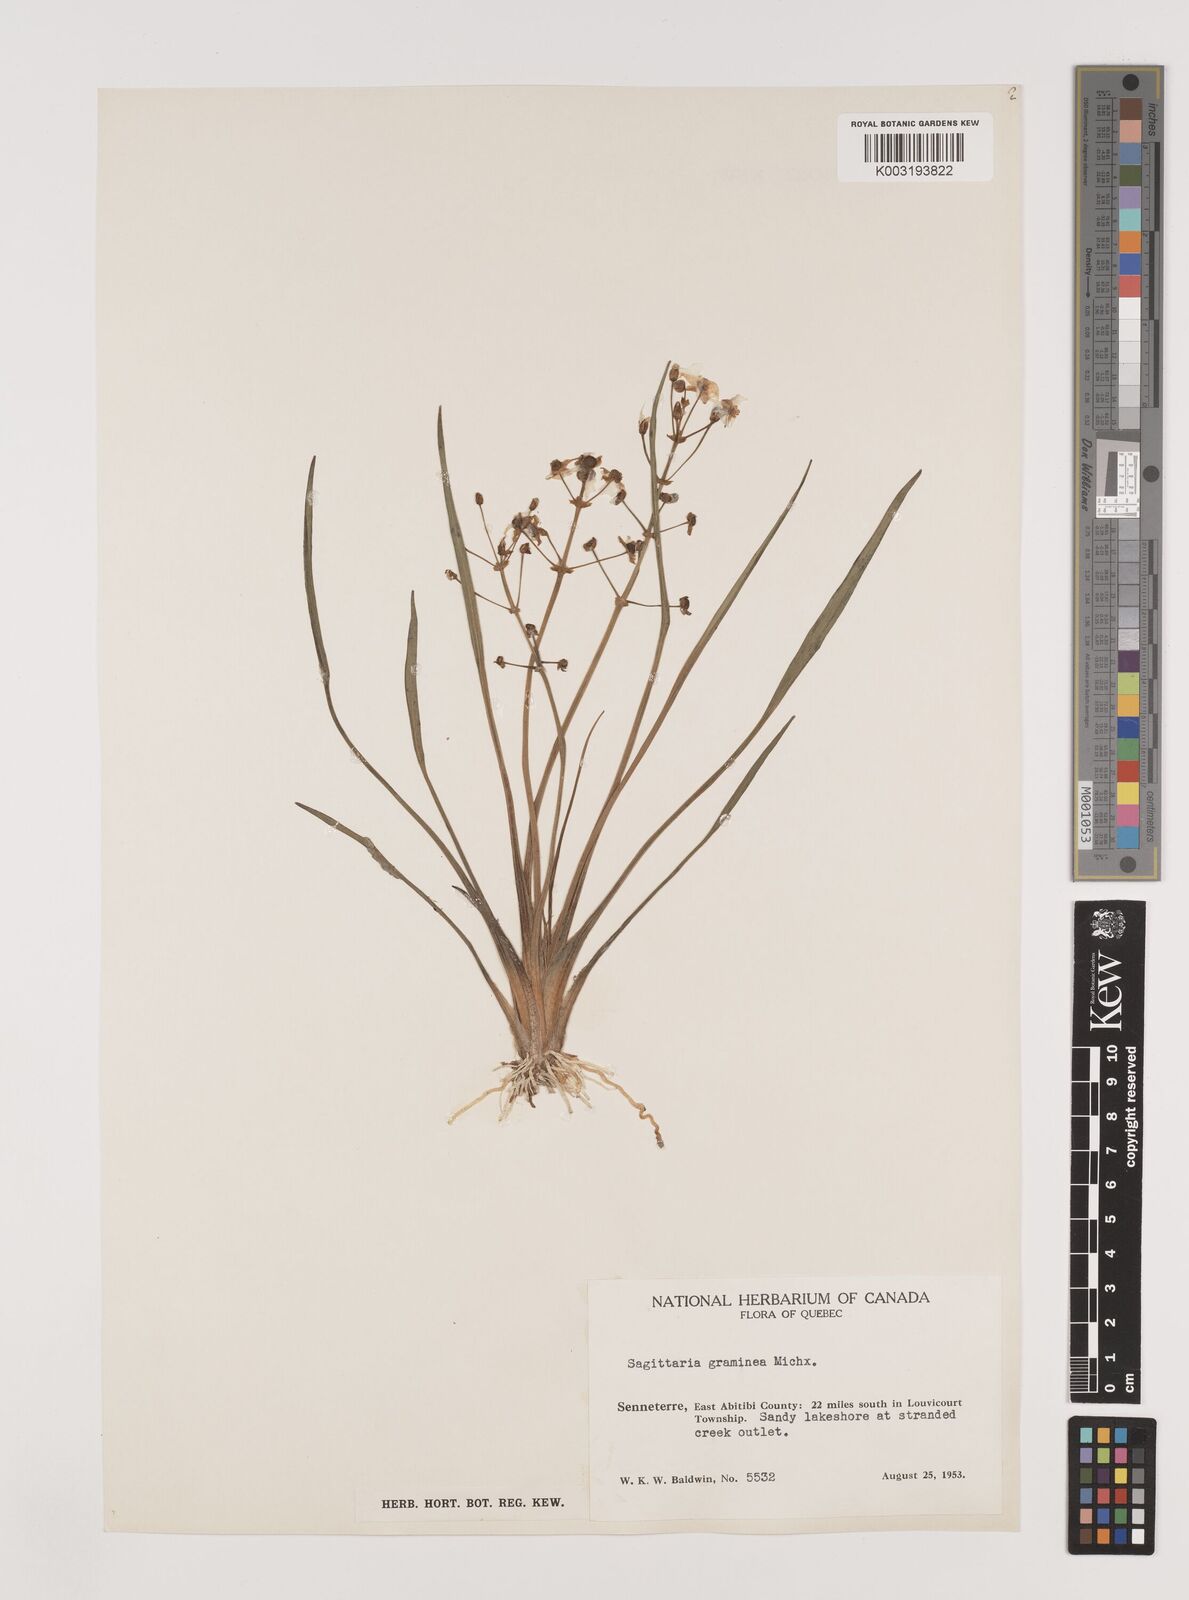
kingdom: Plantae
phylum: Tracheophyta
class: Liliopsida
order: Alismatales
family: Alismataceae
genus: Sagittaria
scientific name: Sagittaria graminea
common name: Grass-leaved arrowhead
